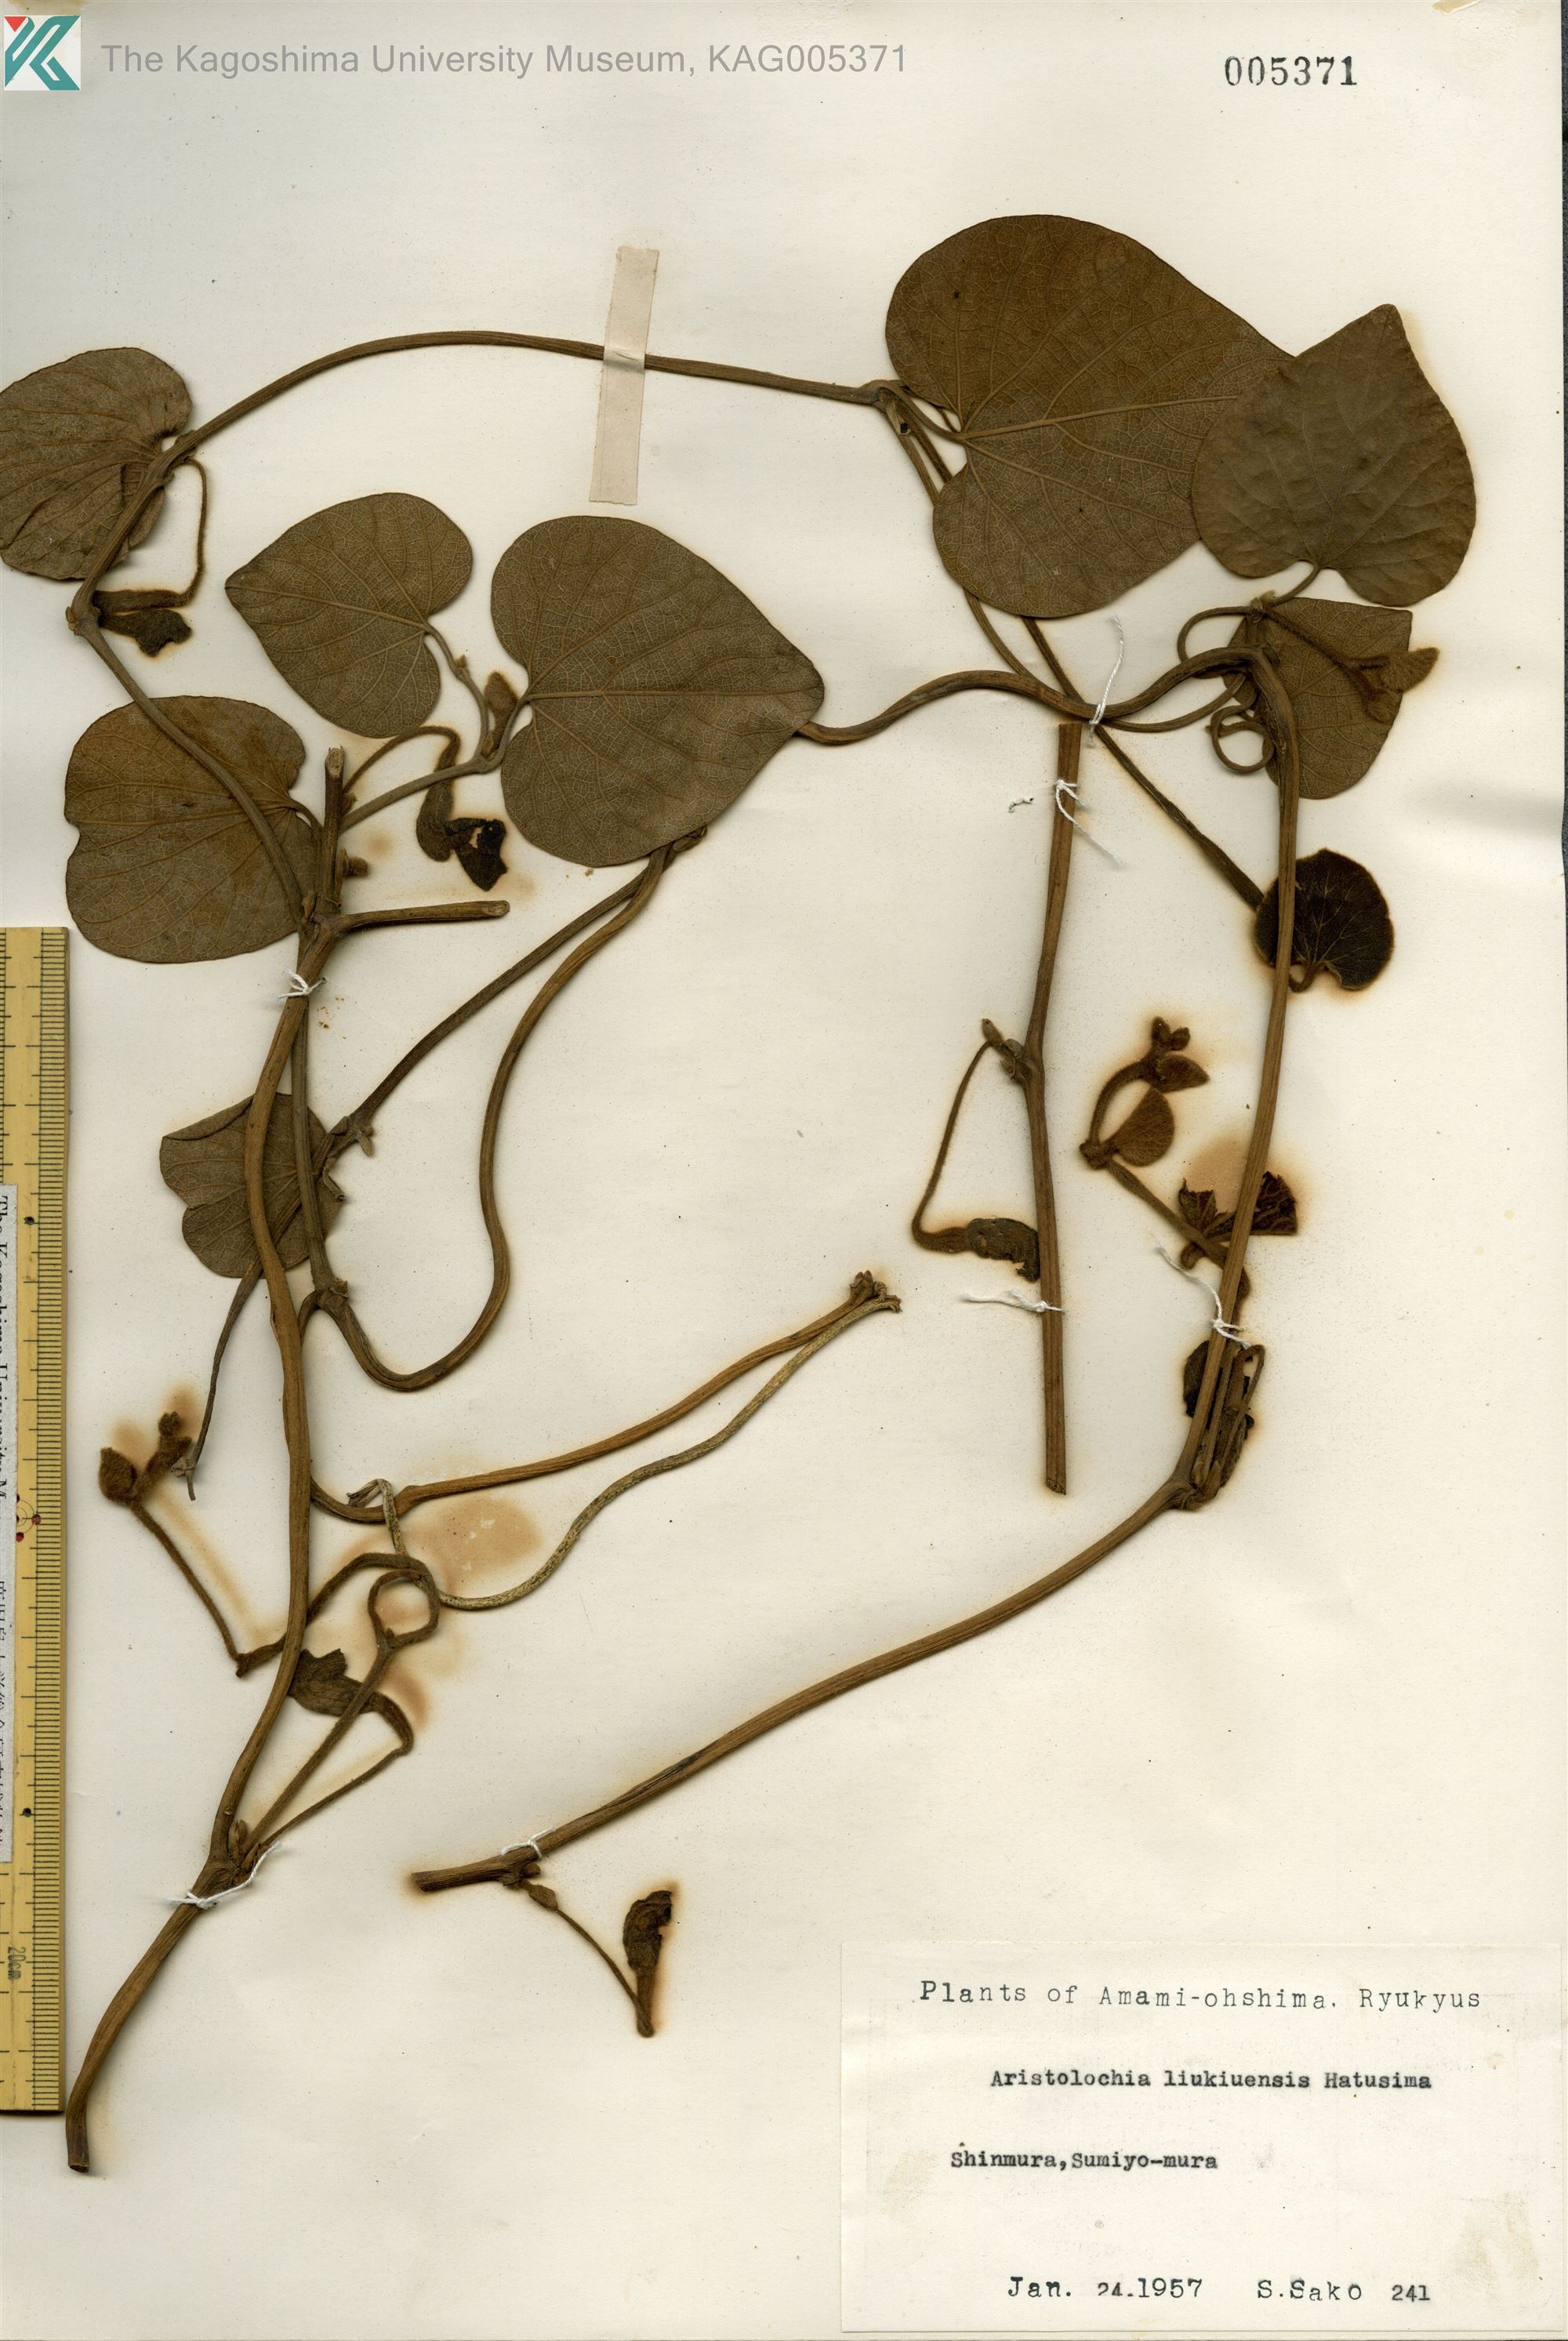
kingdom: Plantae
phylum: Tracheophyta
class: Magnoliopsida
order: Piperales
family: Aristolochiaceae
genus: Isotrema
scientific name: Isotrema liukiuense
